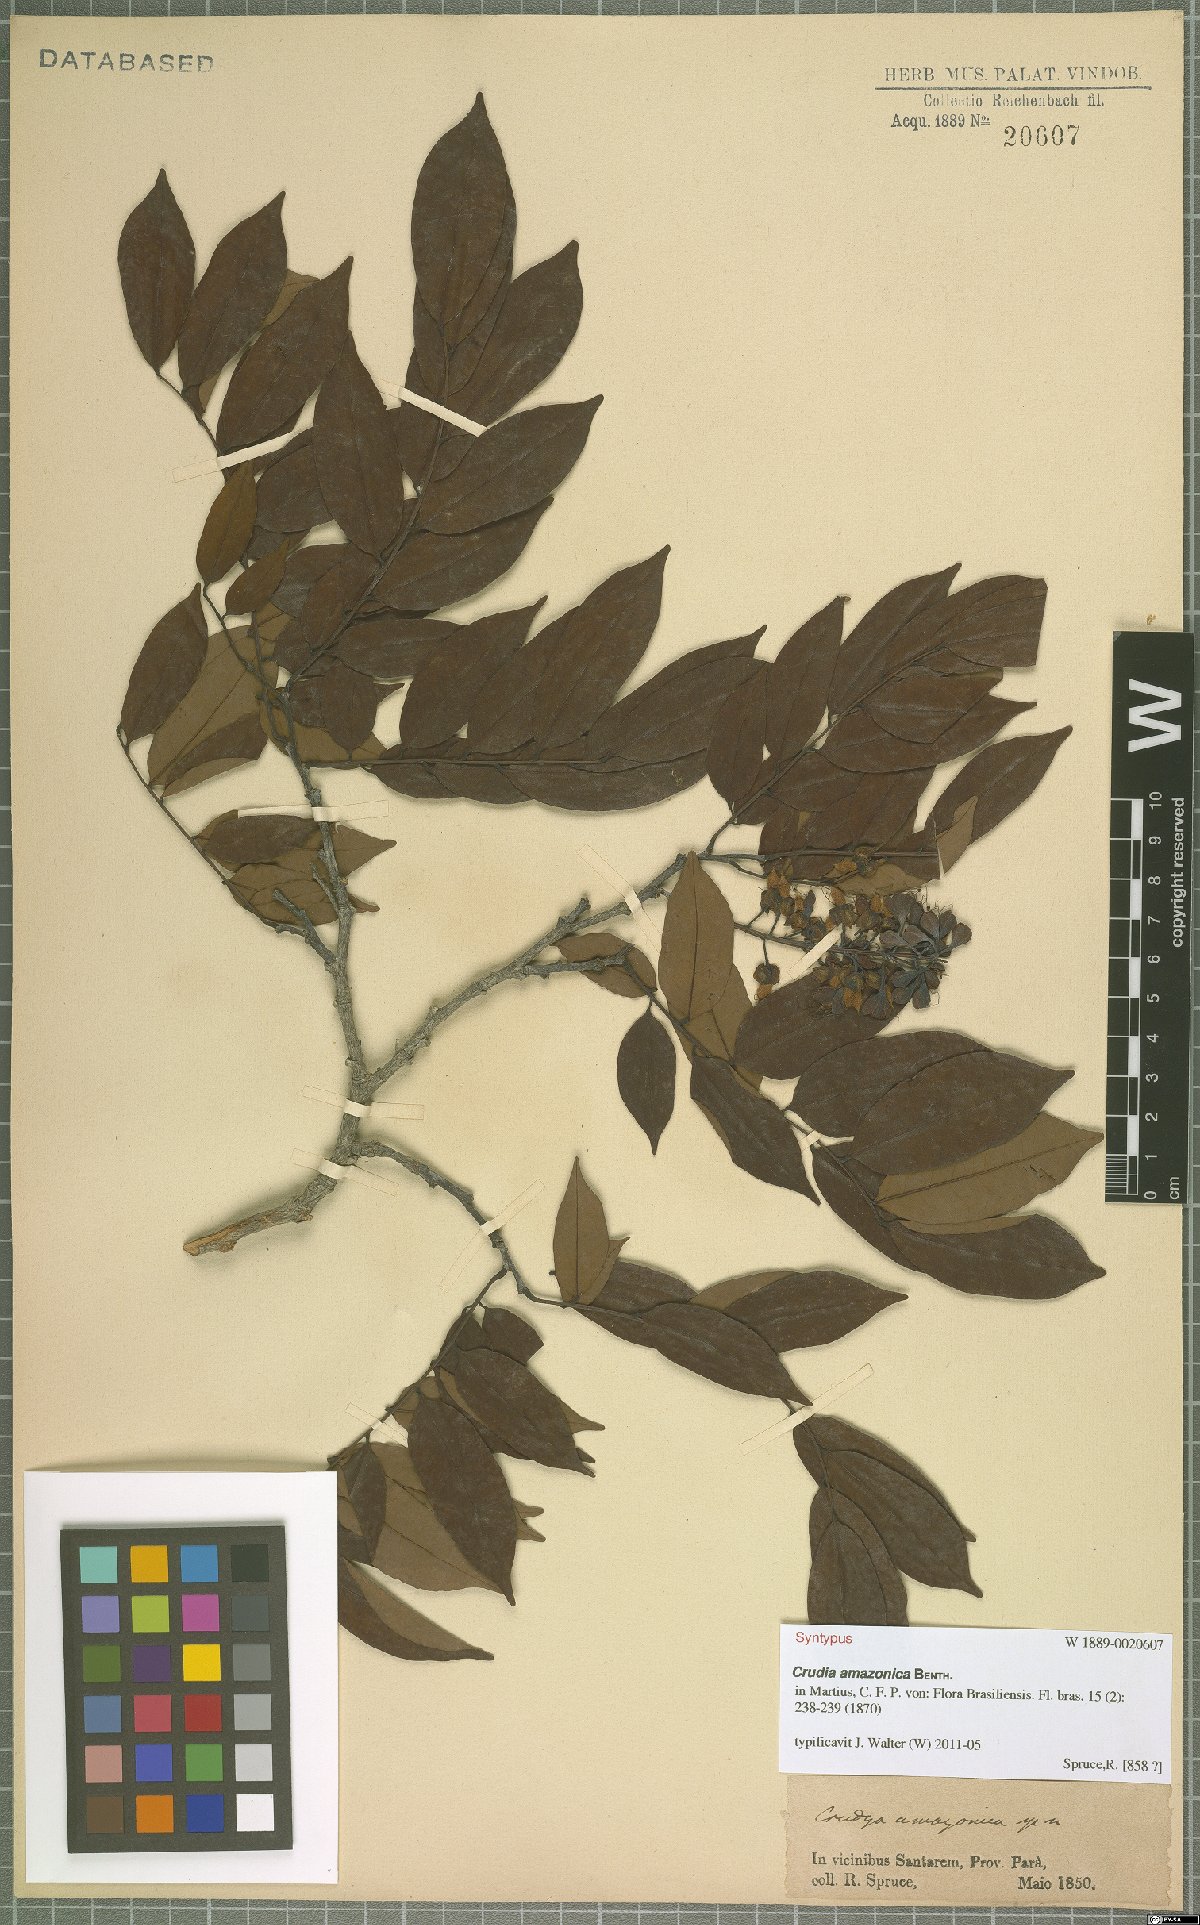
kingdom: Plantae
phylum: Tracheophyta
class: Magnoliopsida
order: Fabales
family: Fabaceae
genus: Crudia
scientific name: Crudia amazonica
